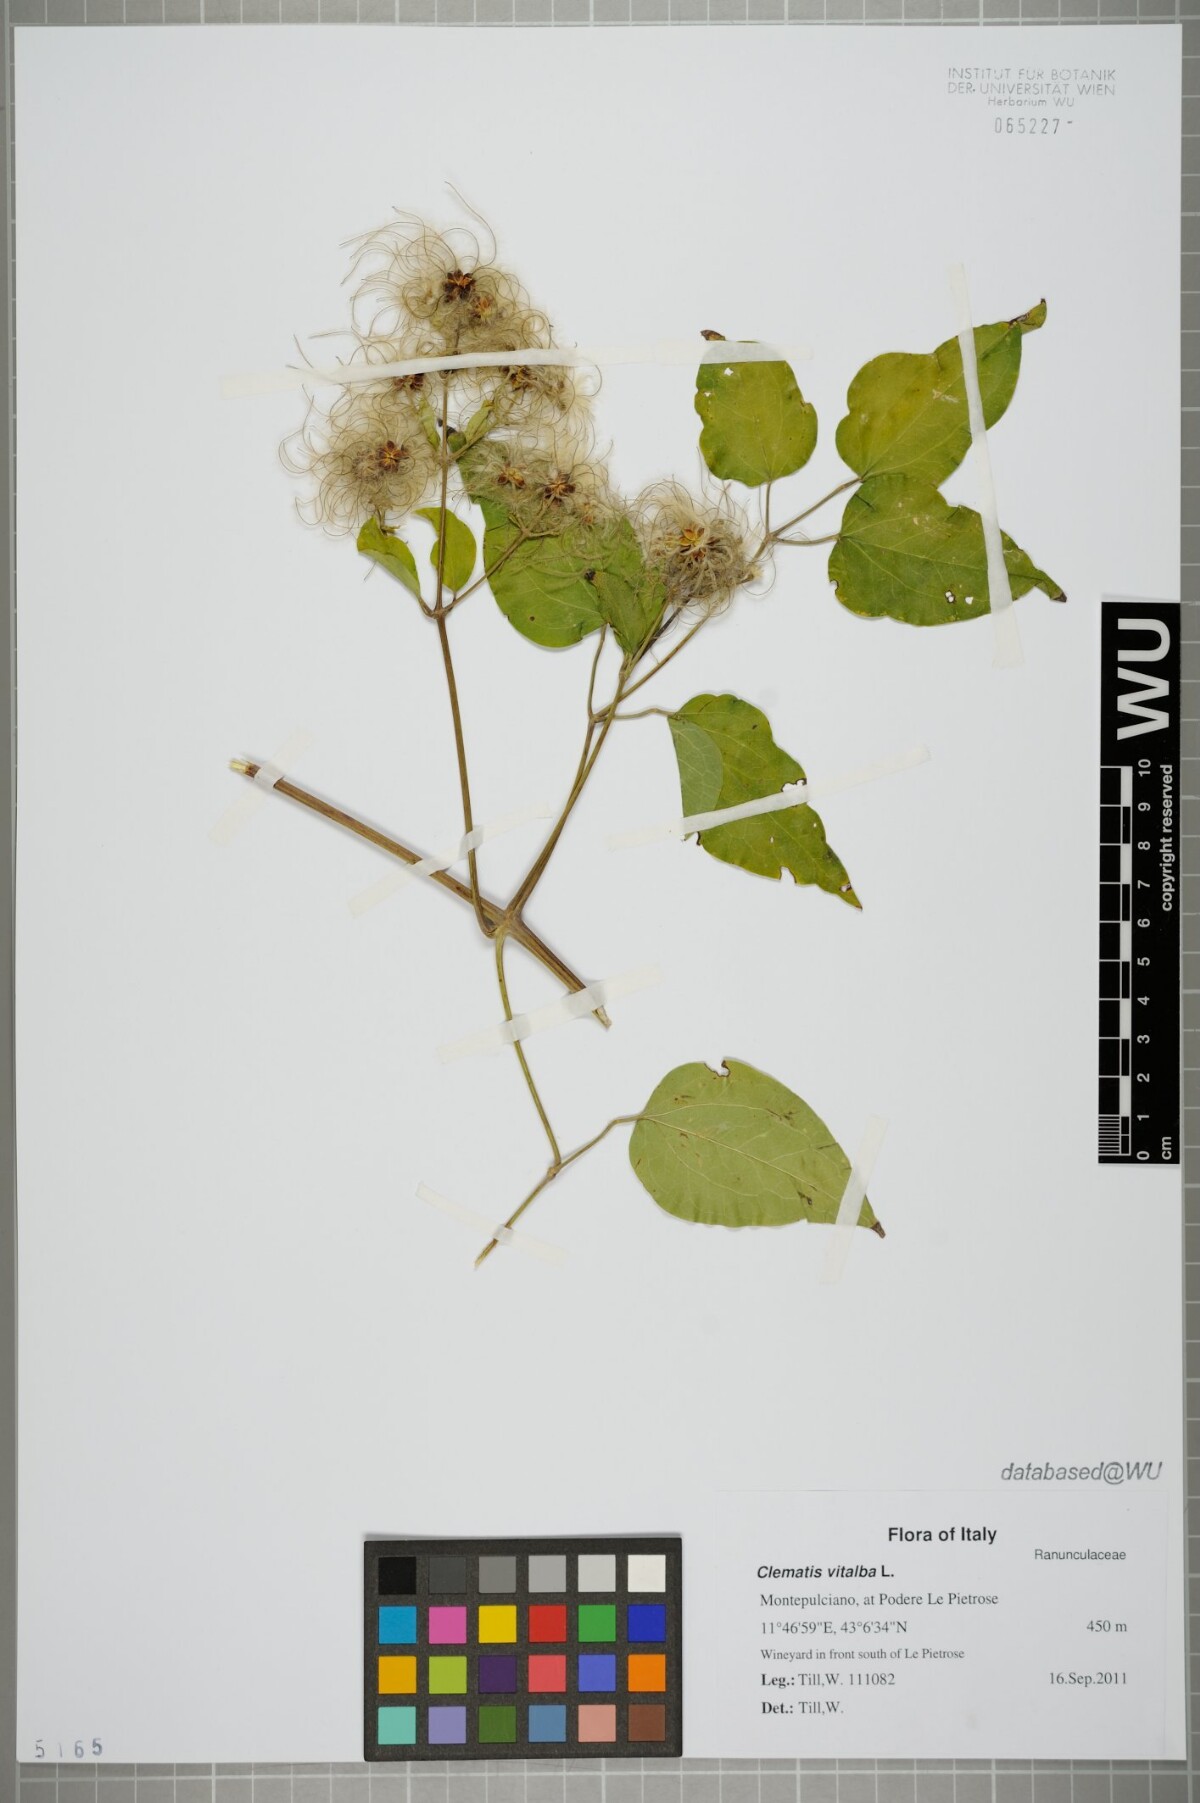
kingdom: Plantae
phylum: Tracheophyta
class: Magnoliopsida
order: Ranunculales
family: Ranunculaceae
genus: Clematis
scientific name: Clematis vitalba
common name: Evergreen clematis
